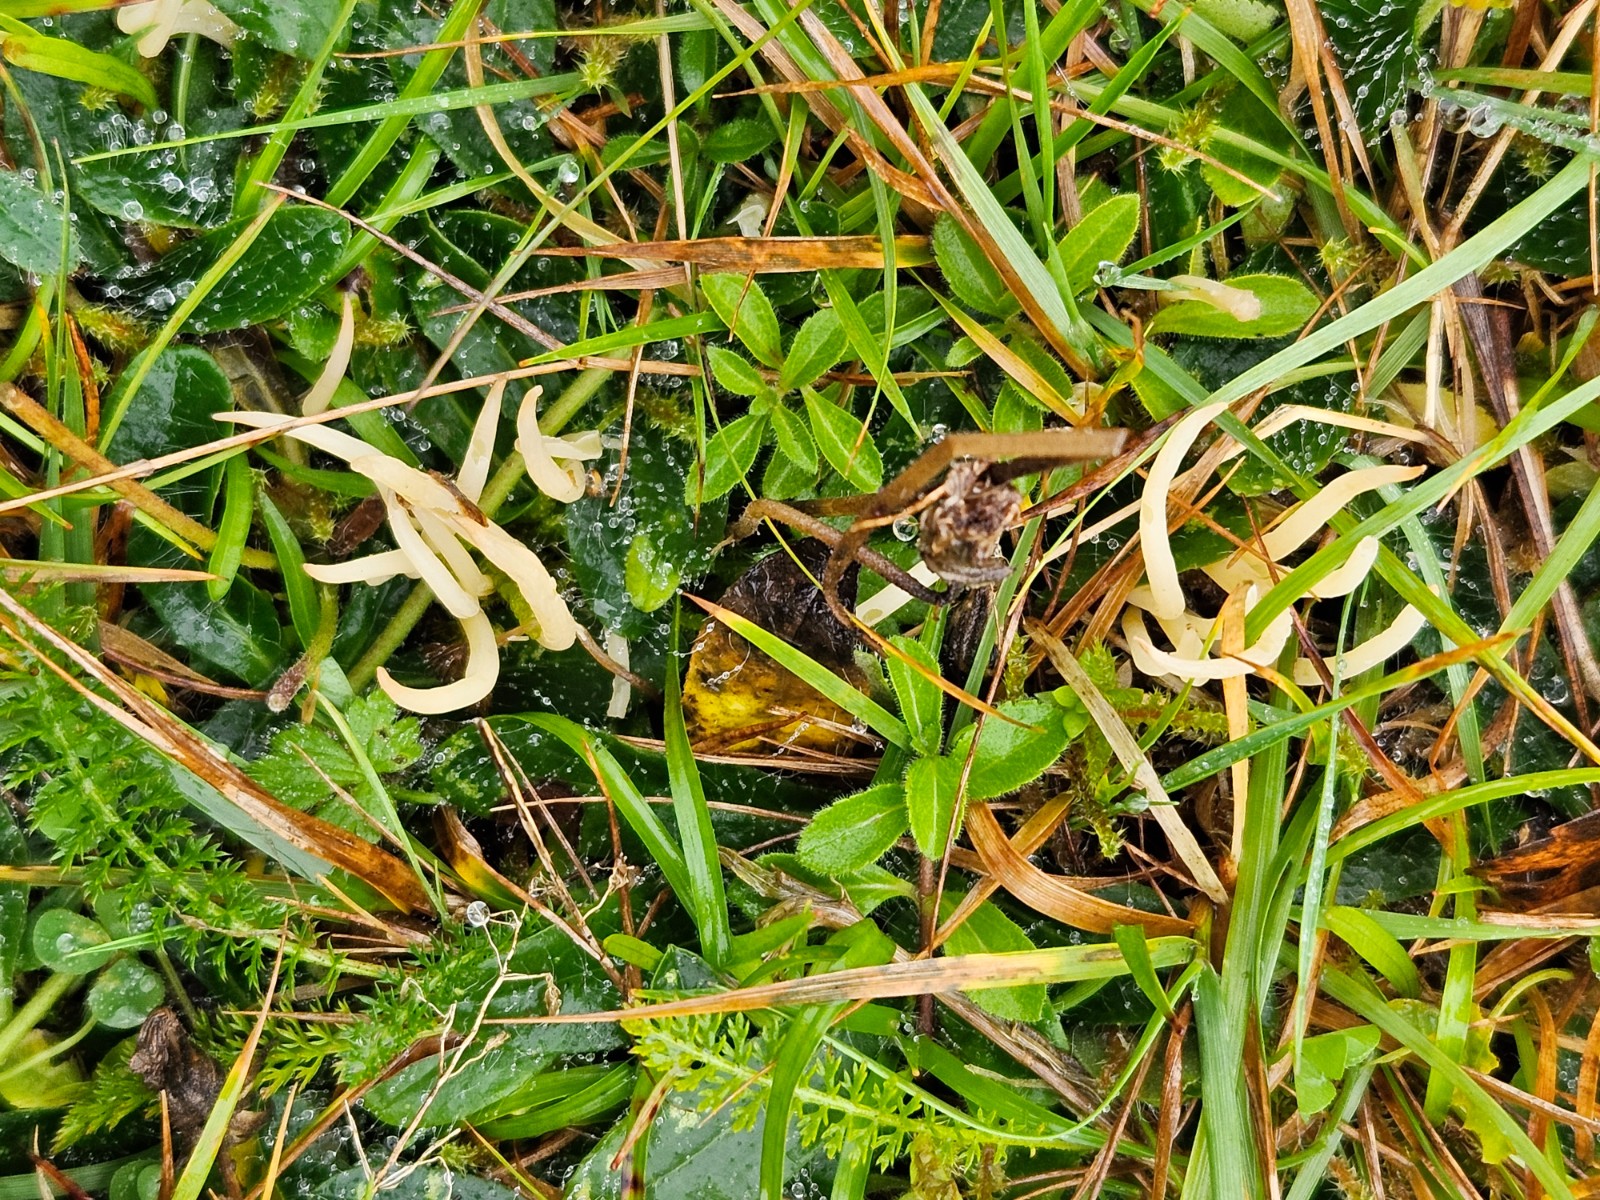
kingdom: Fungi
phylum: Basidiomycota
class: Agaricomycetes
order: Agaricales
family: Clavariaceae
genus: Clavaria
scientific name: Clavaria
